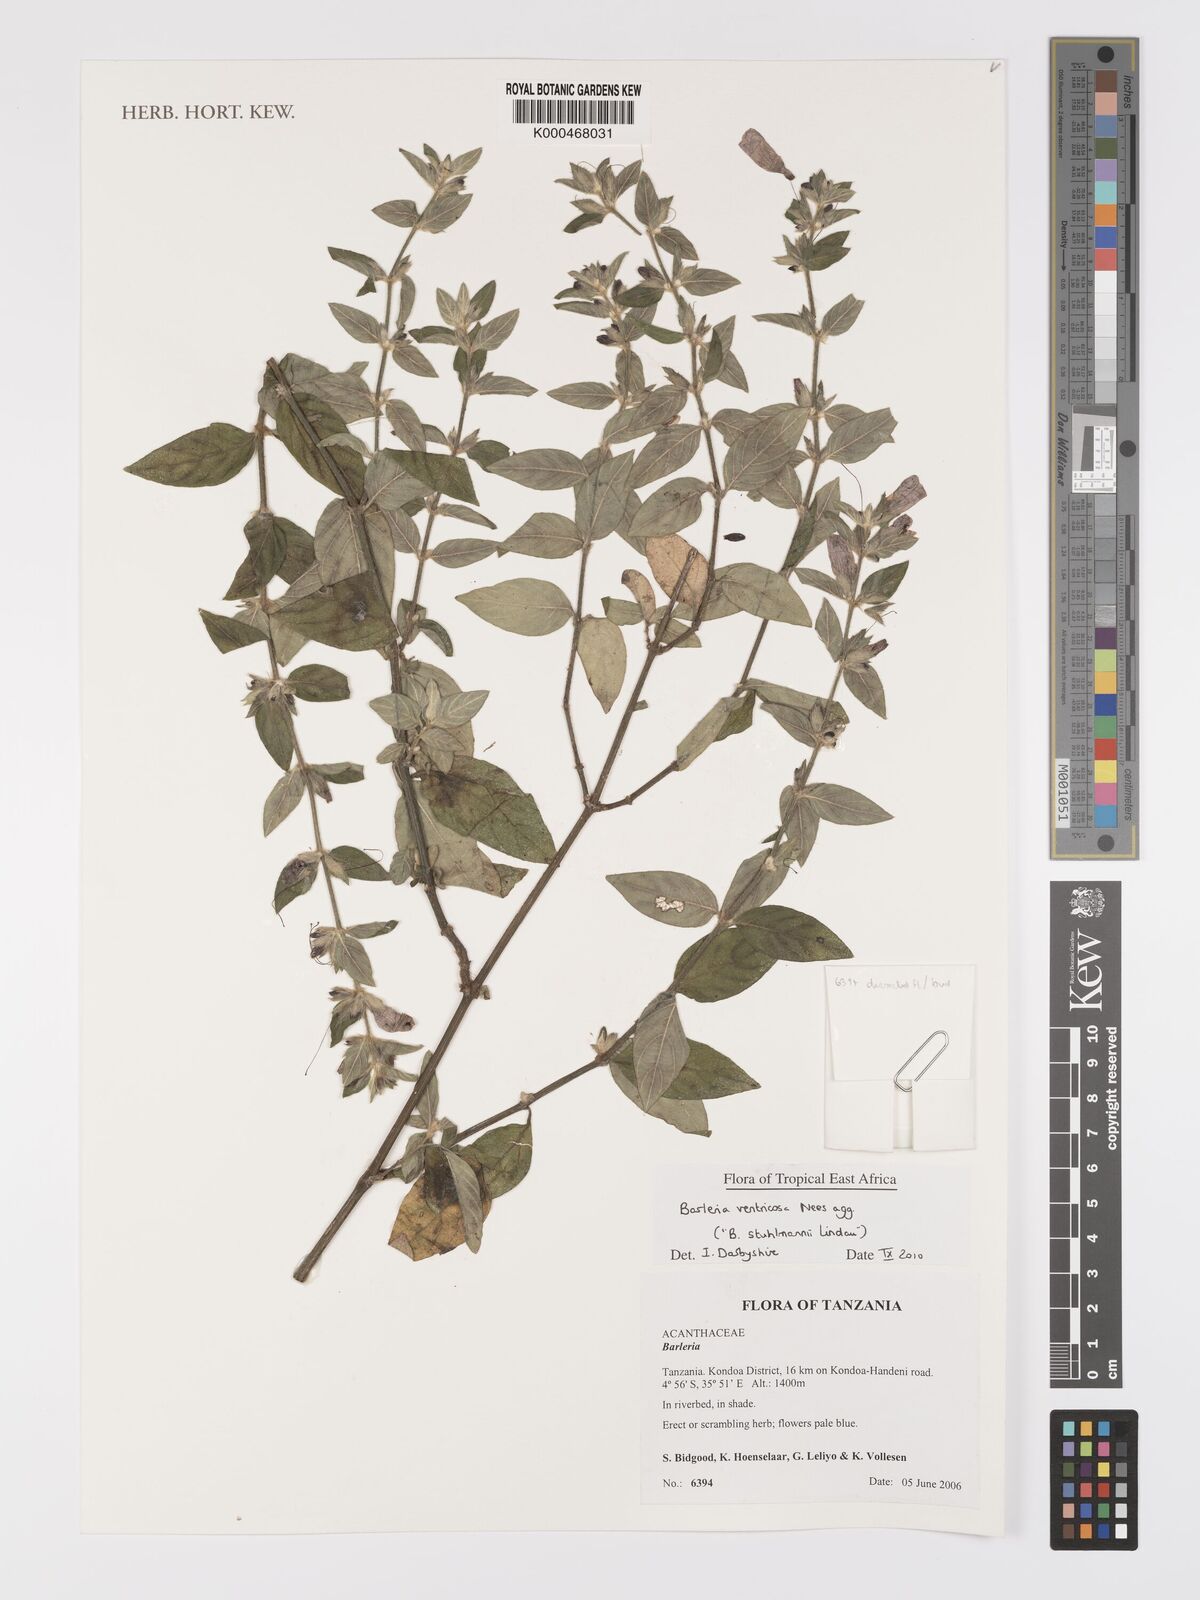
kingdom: Plantae
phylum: Tracheophyta
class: Magnoliopsida
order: Lamiales
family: Acanthaceae
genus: Barleria
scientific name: Barleria
